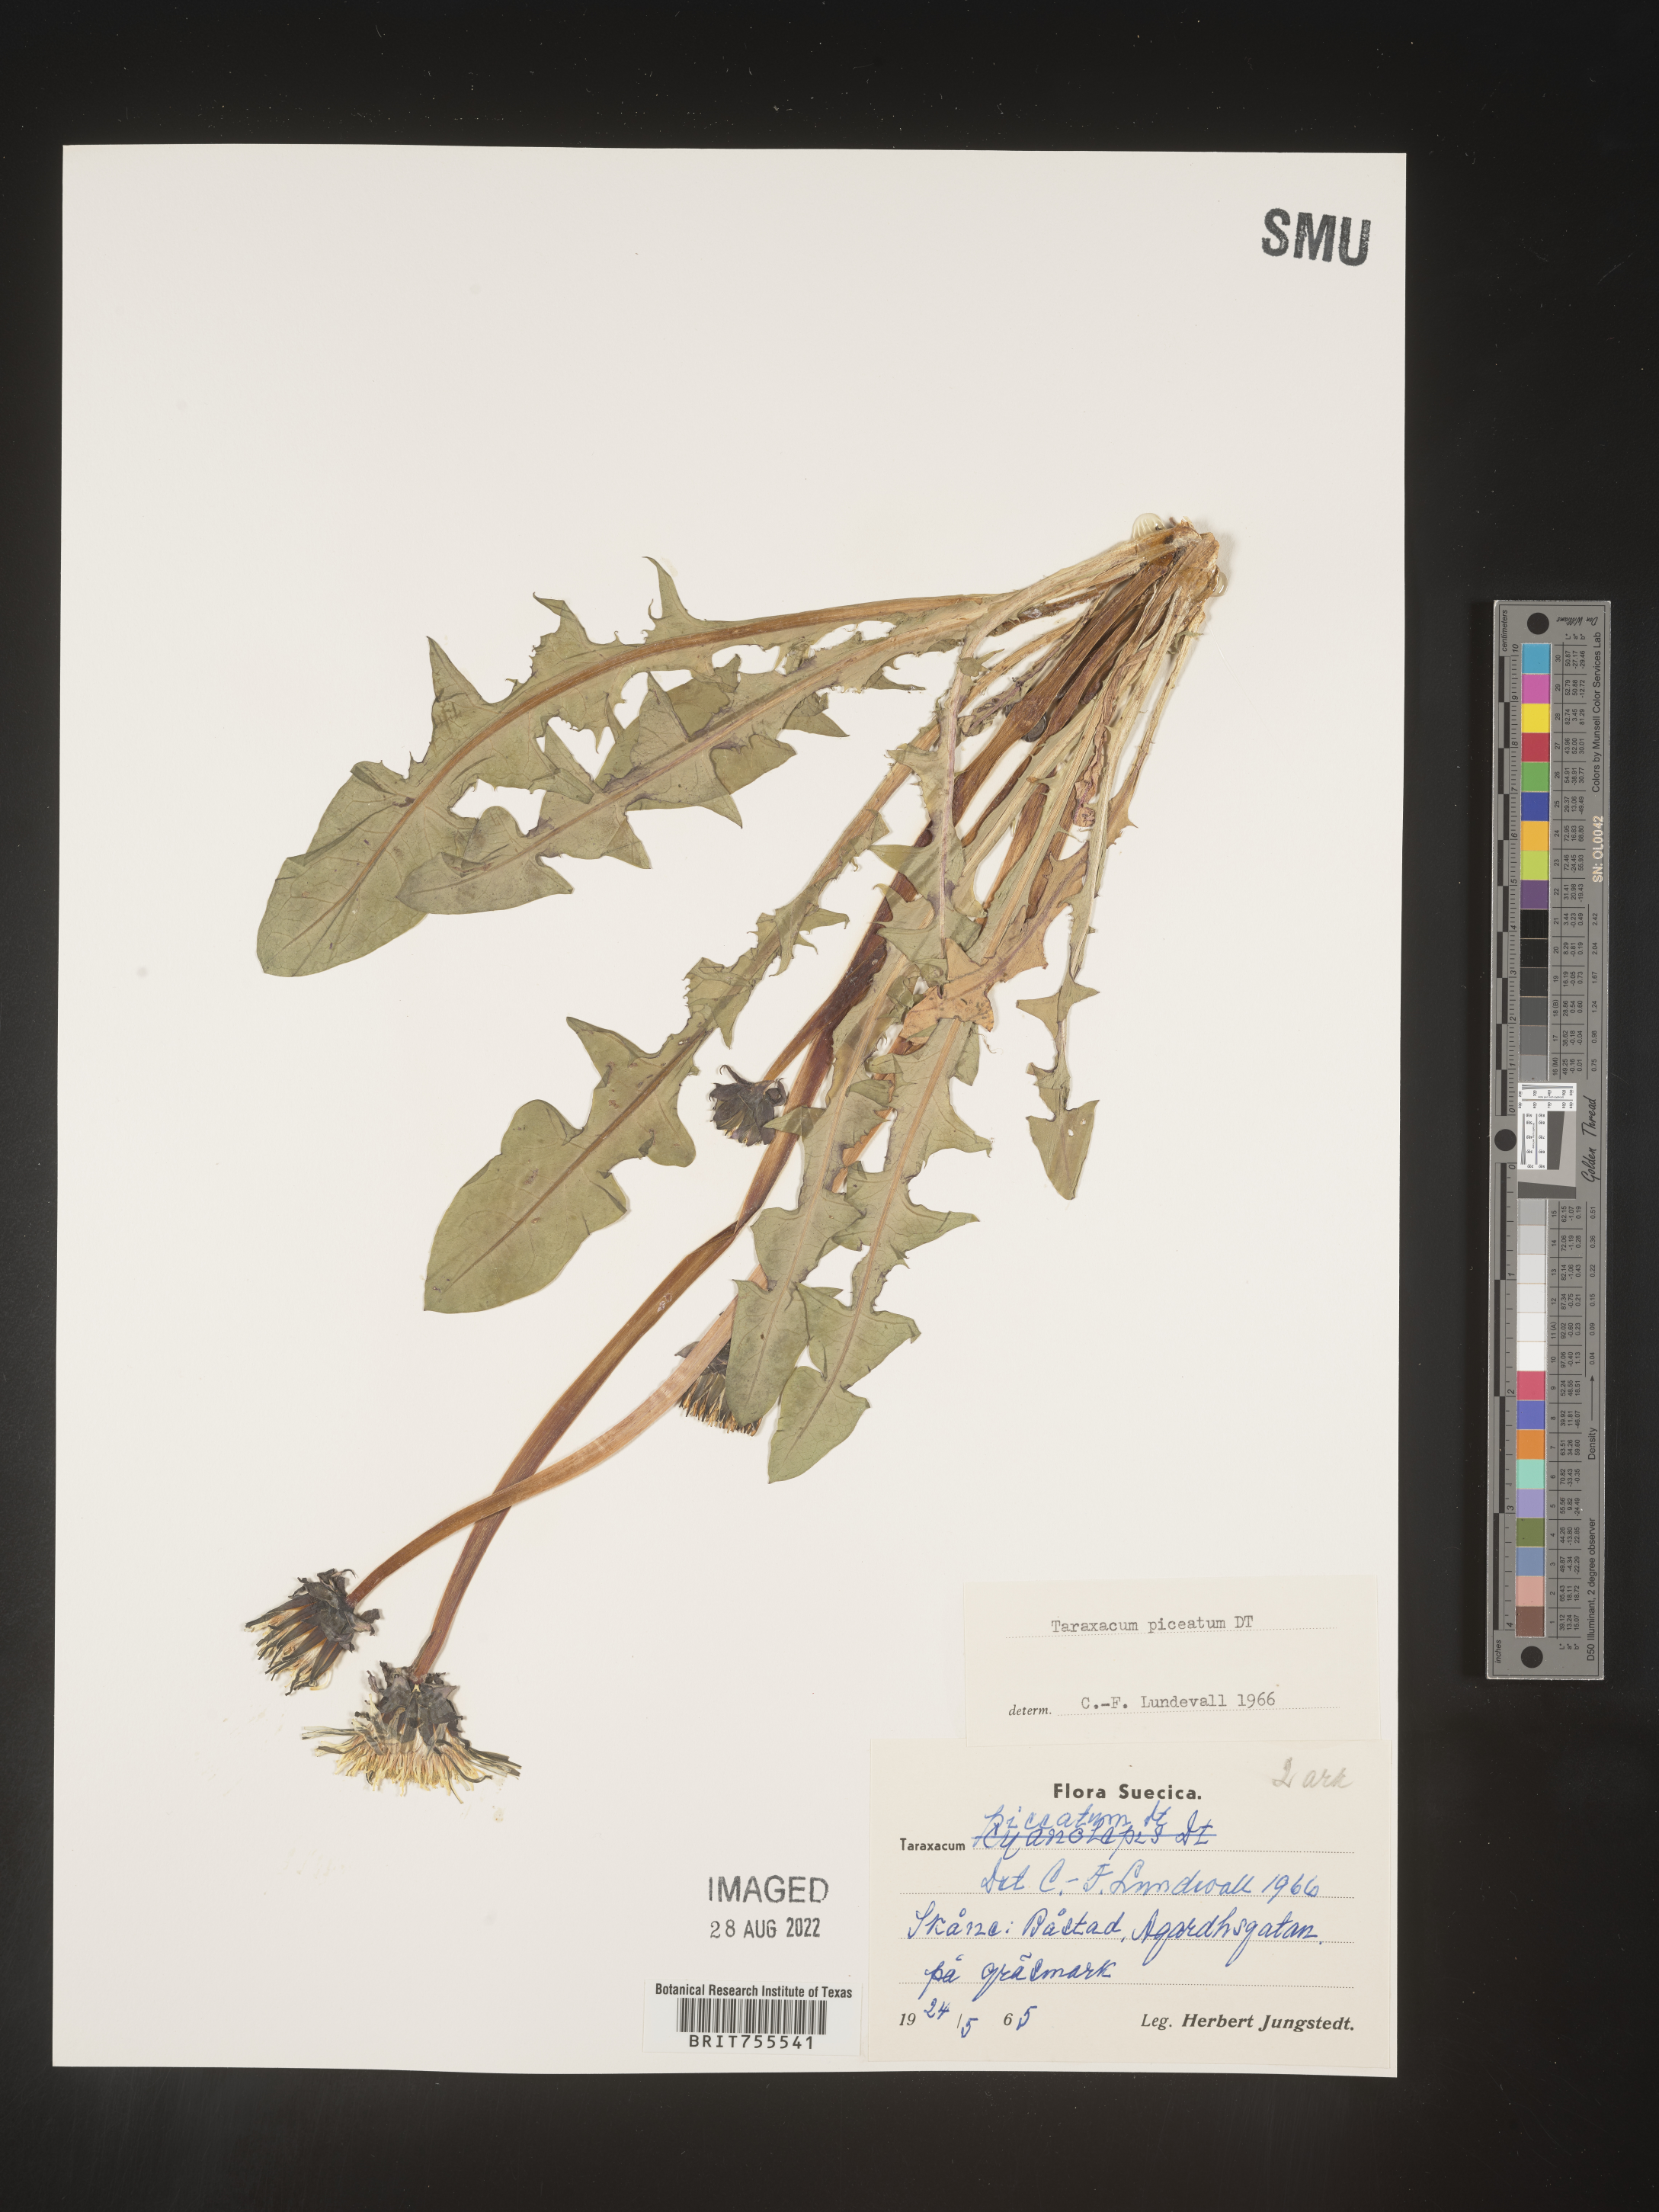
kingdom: Plantae
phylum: Tracheophyta
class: Magnoliopsida
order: Asterales
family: Asteraceae
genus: Taraxacum
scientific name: Taraxacum
